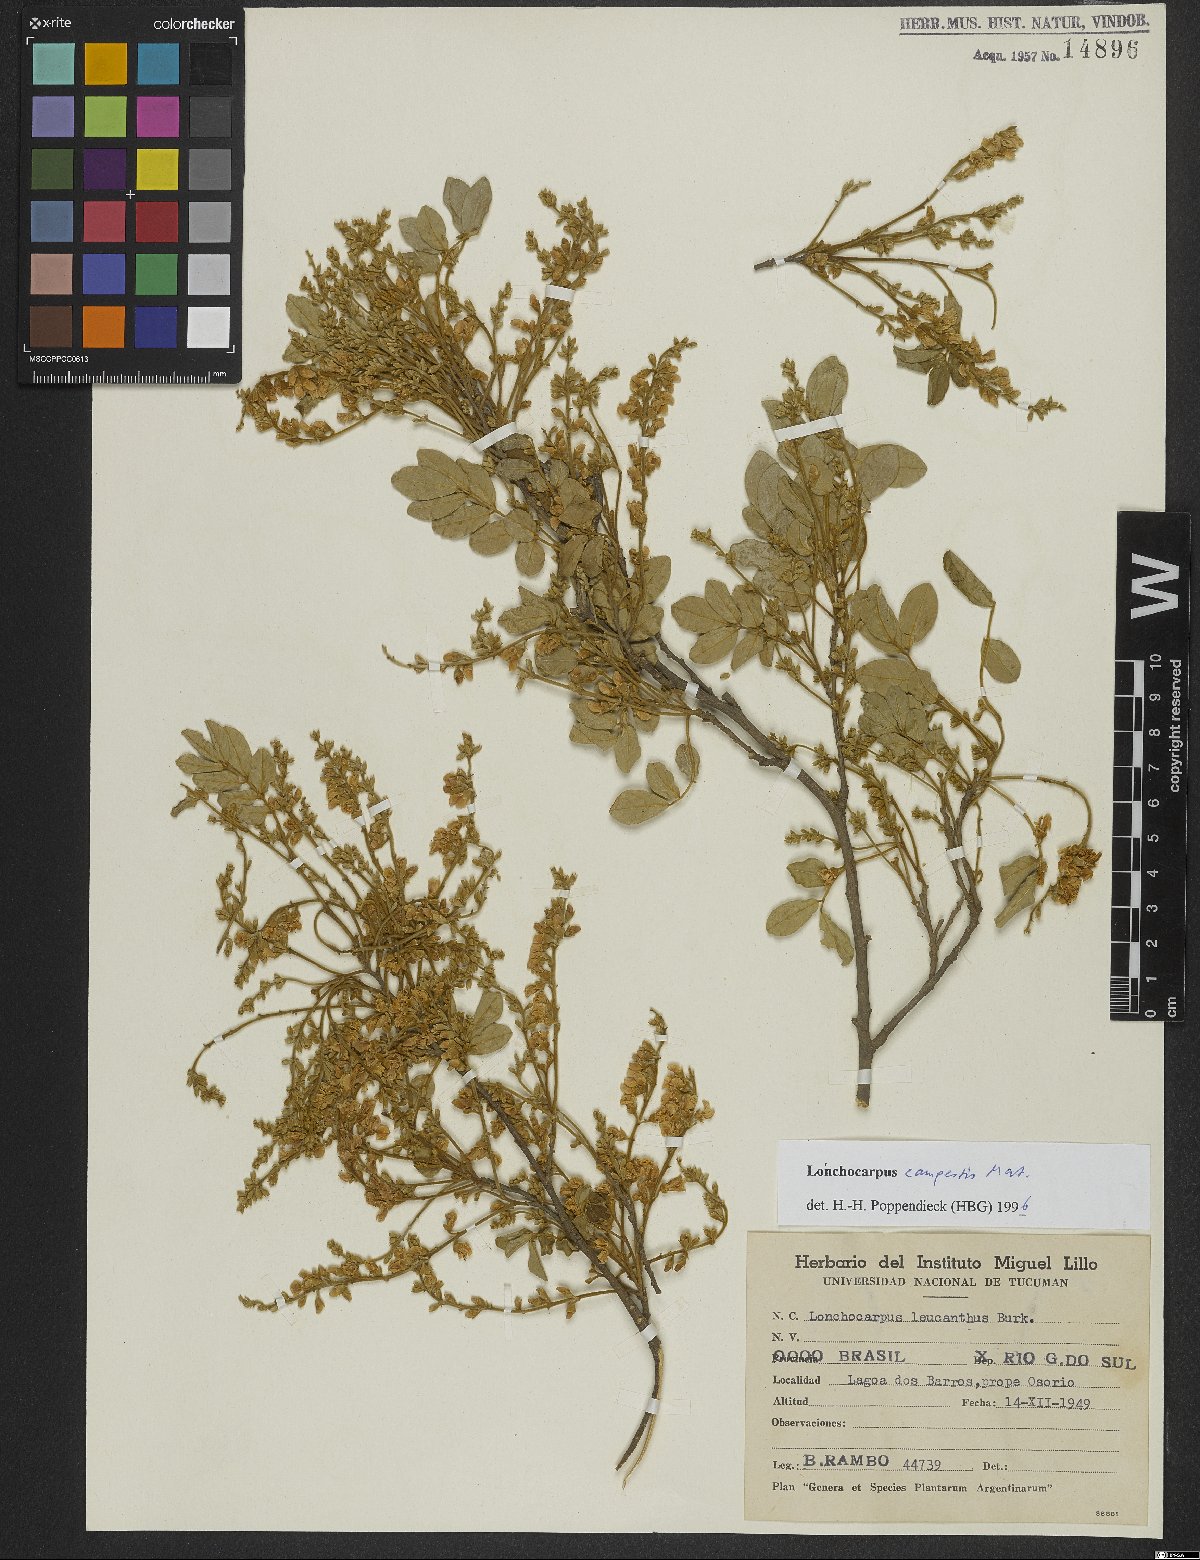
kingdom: Plantae
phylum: Tracheophyta
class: Magnoliopsida
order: Fabales
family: Fabaceae
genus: Muellera
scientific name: Muellera campestris
